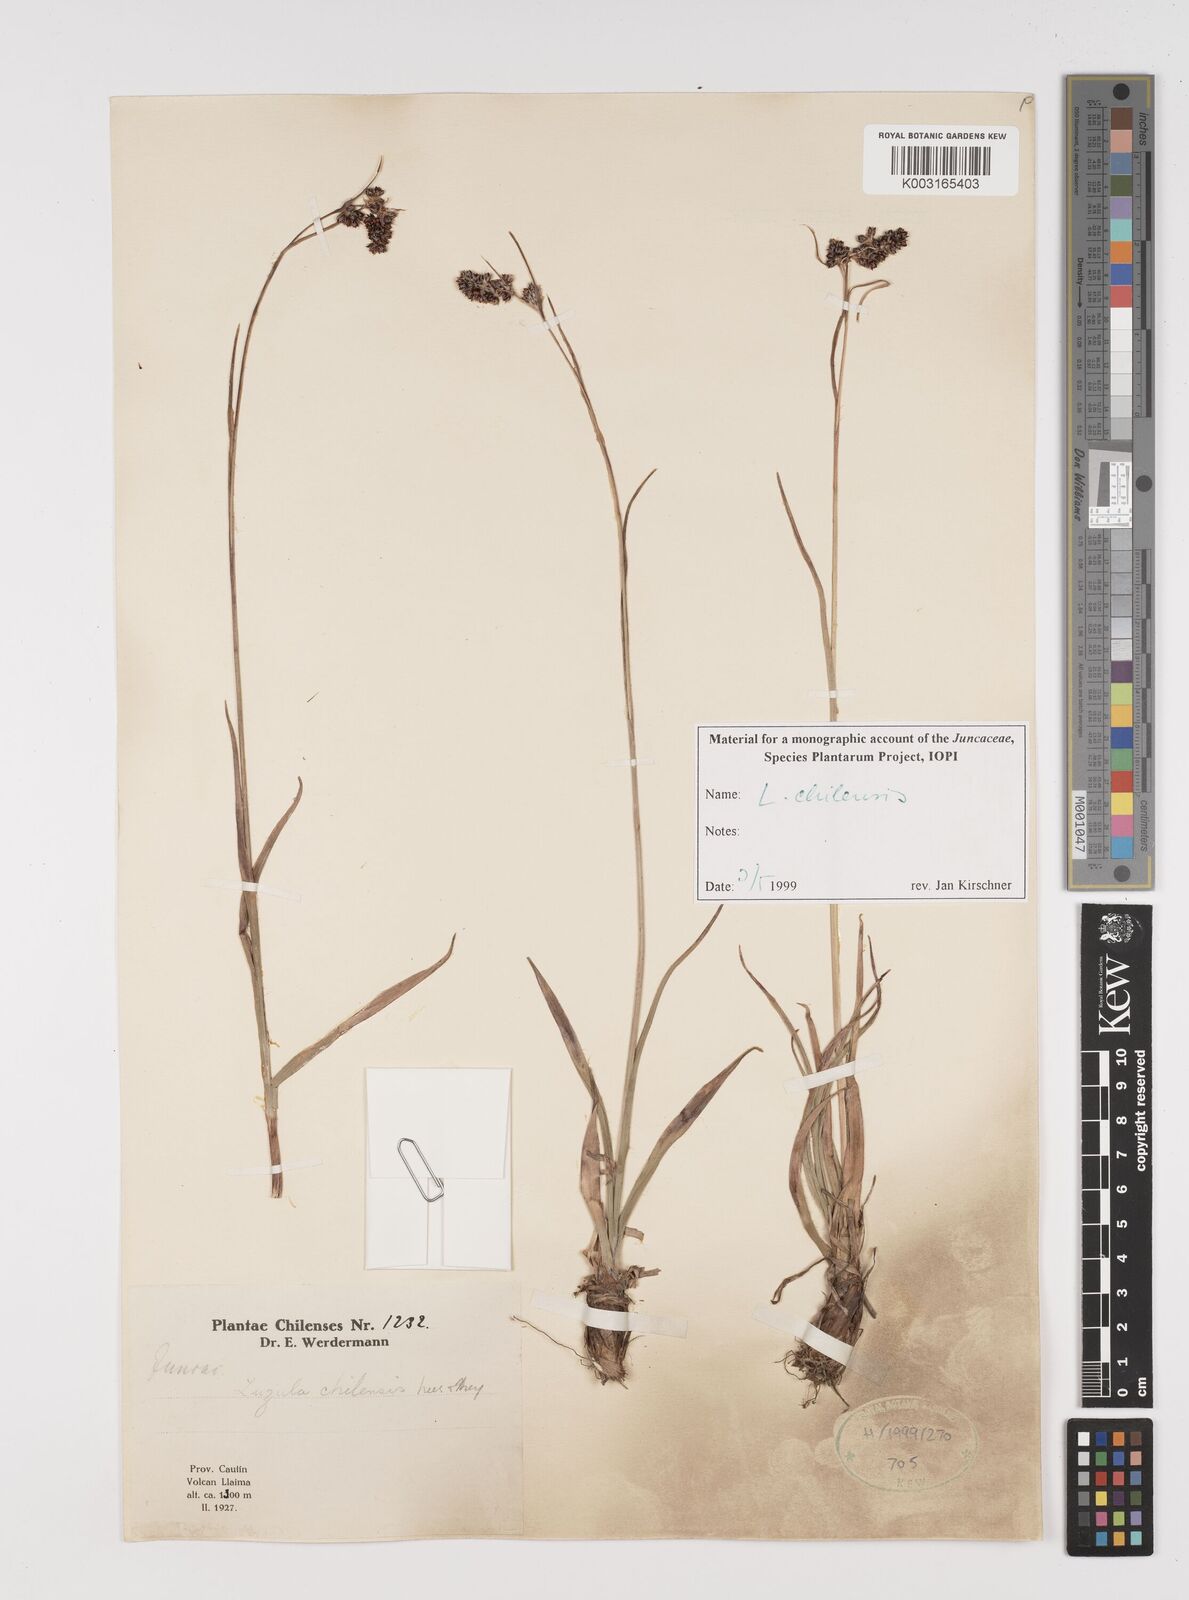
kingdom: Plantae
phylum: Tracheophyta
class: Liliopsida
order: Poales
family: Juncaceae
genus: Luzula
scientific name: Luzula chilensis
